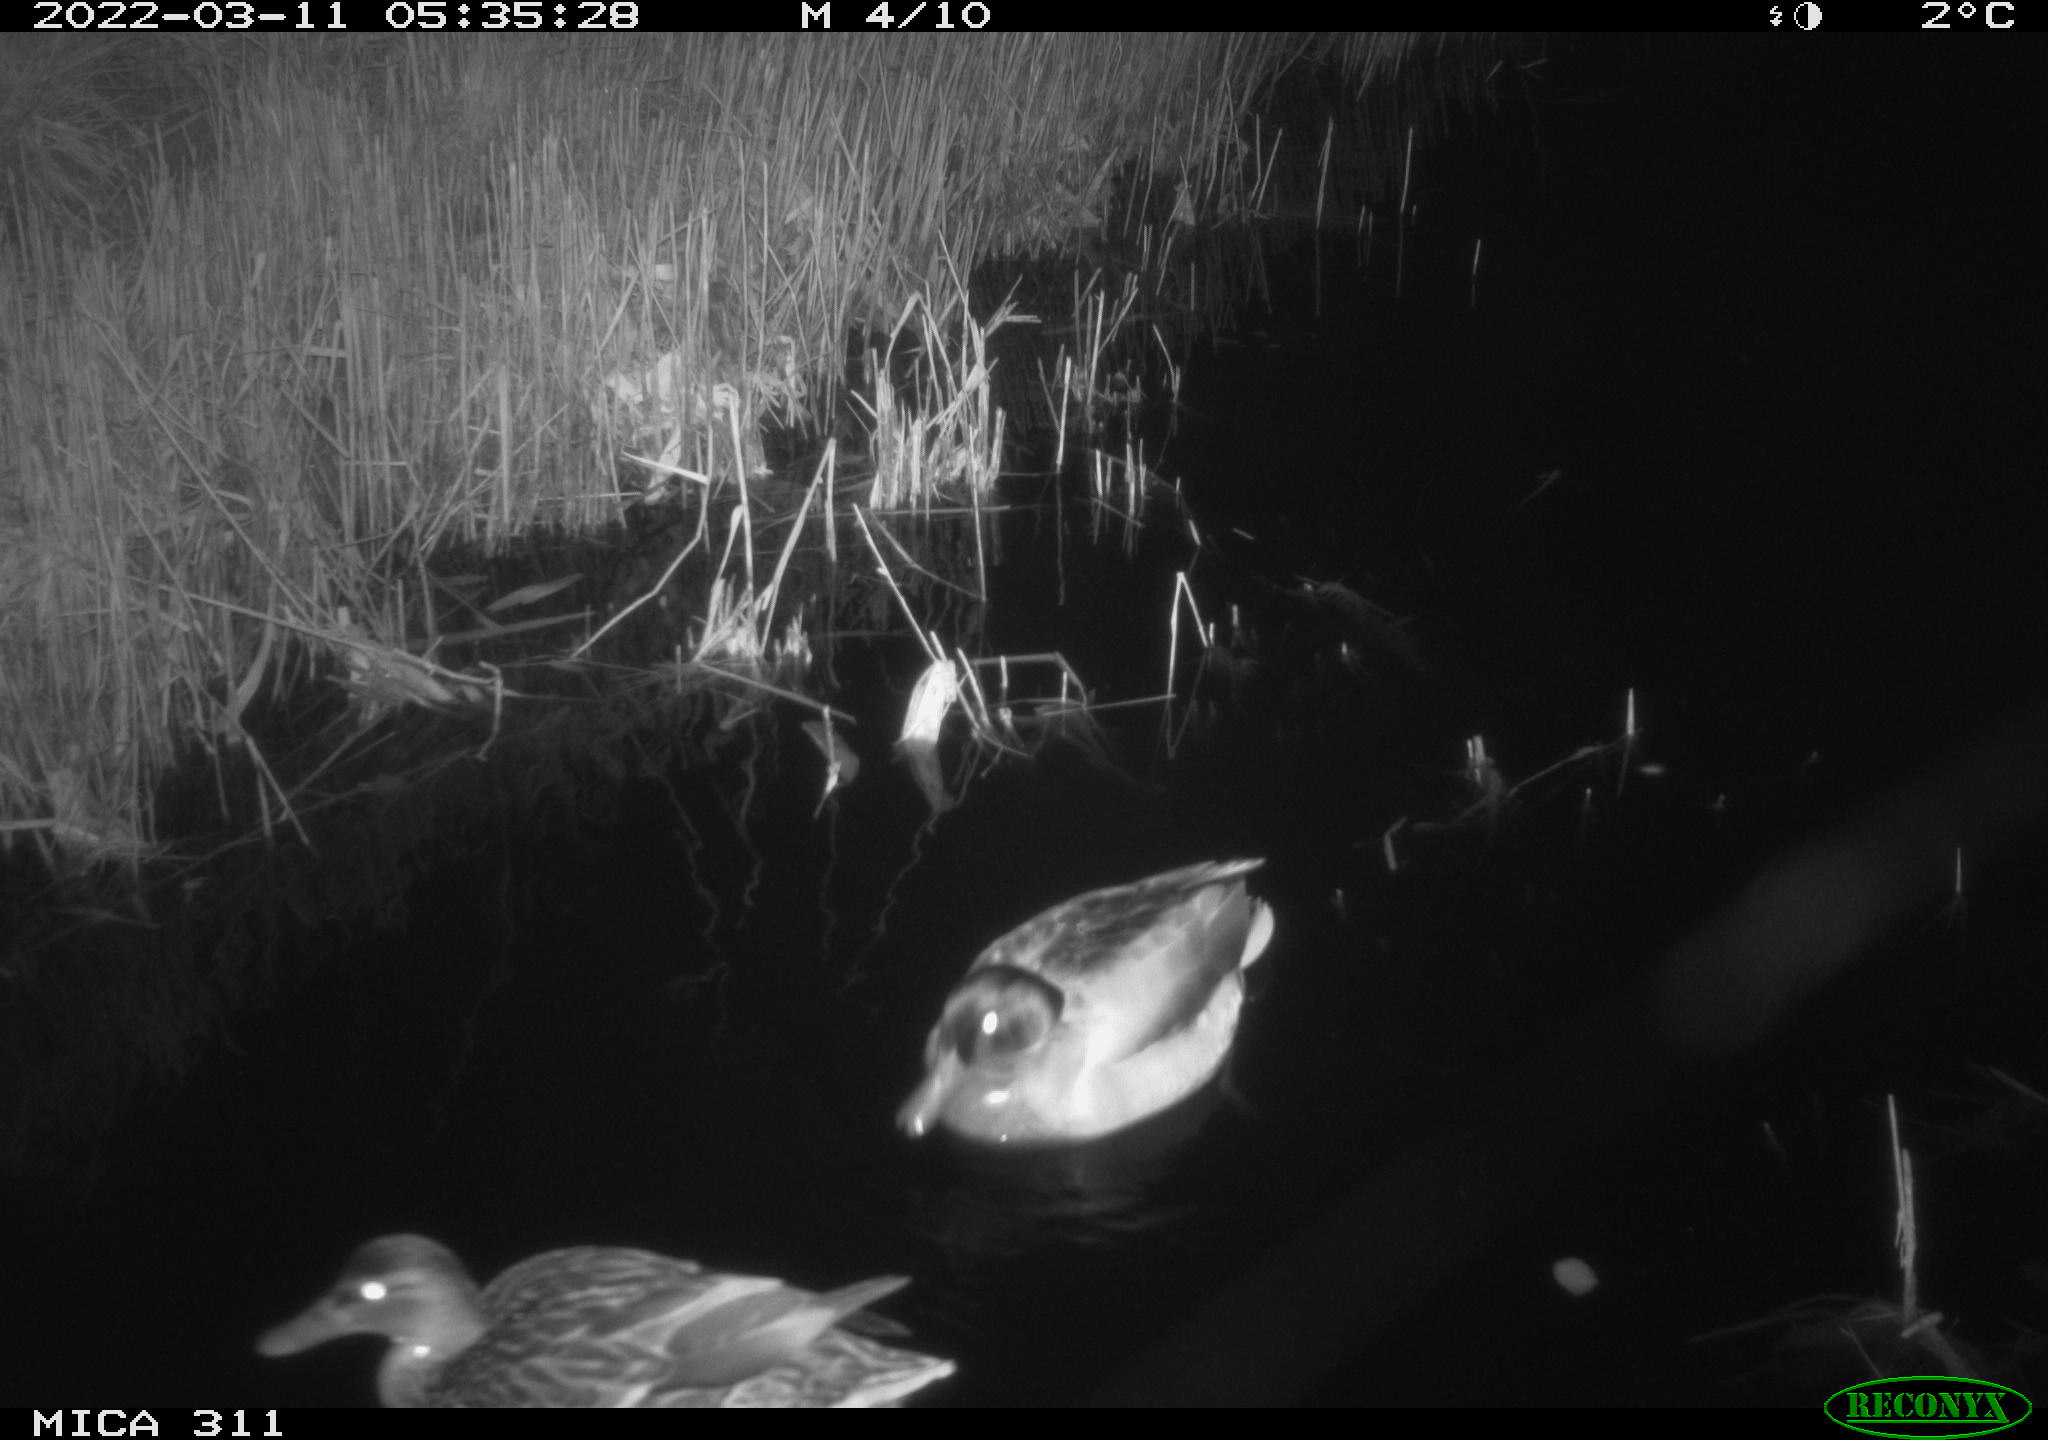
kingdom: Animalia
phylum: Chordata
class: Aves
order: Anseriformes
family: Anatidae
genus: Anas
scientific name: Anas
